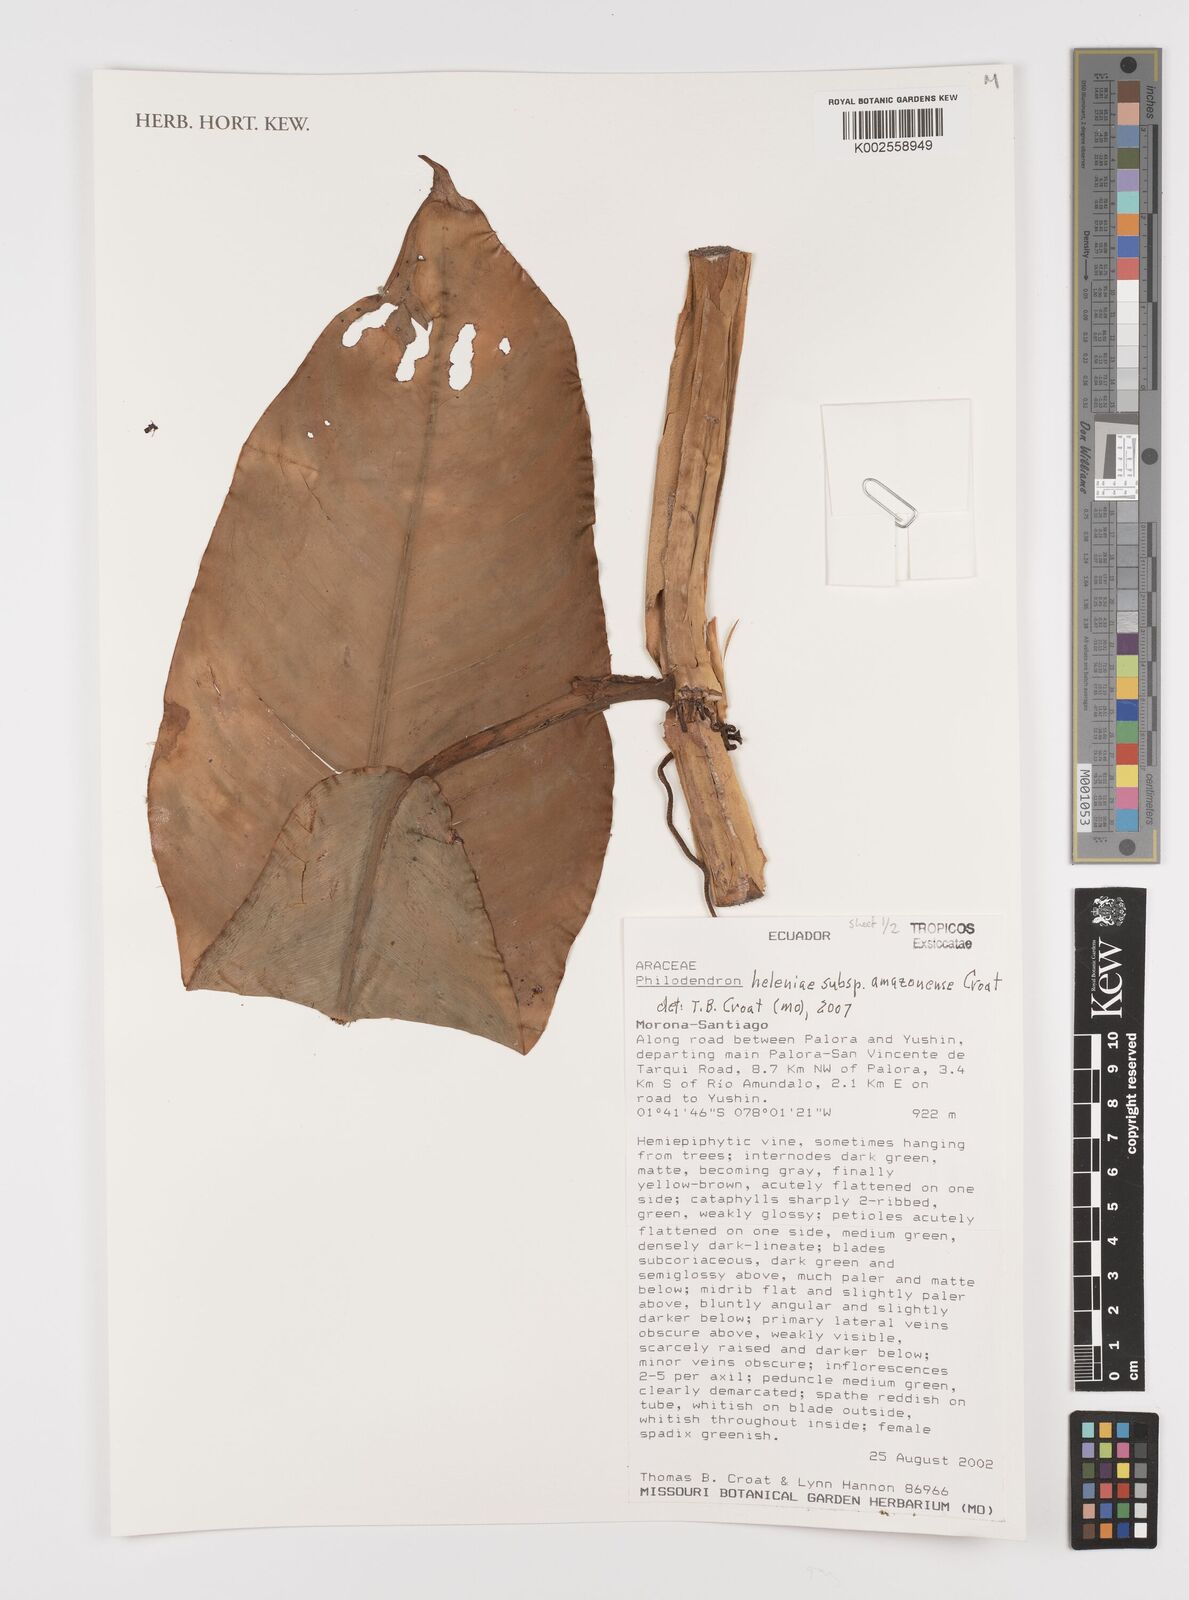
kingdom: Plantae
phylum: Tracheophyta
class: Liliopsida
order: Alismatales
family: Araceae
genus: Philodendron
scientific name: Philodendron heleniae
